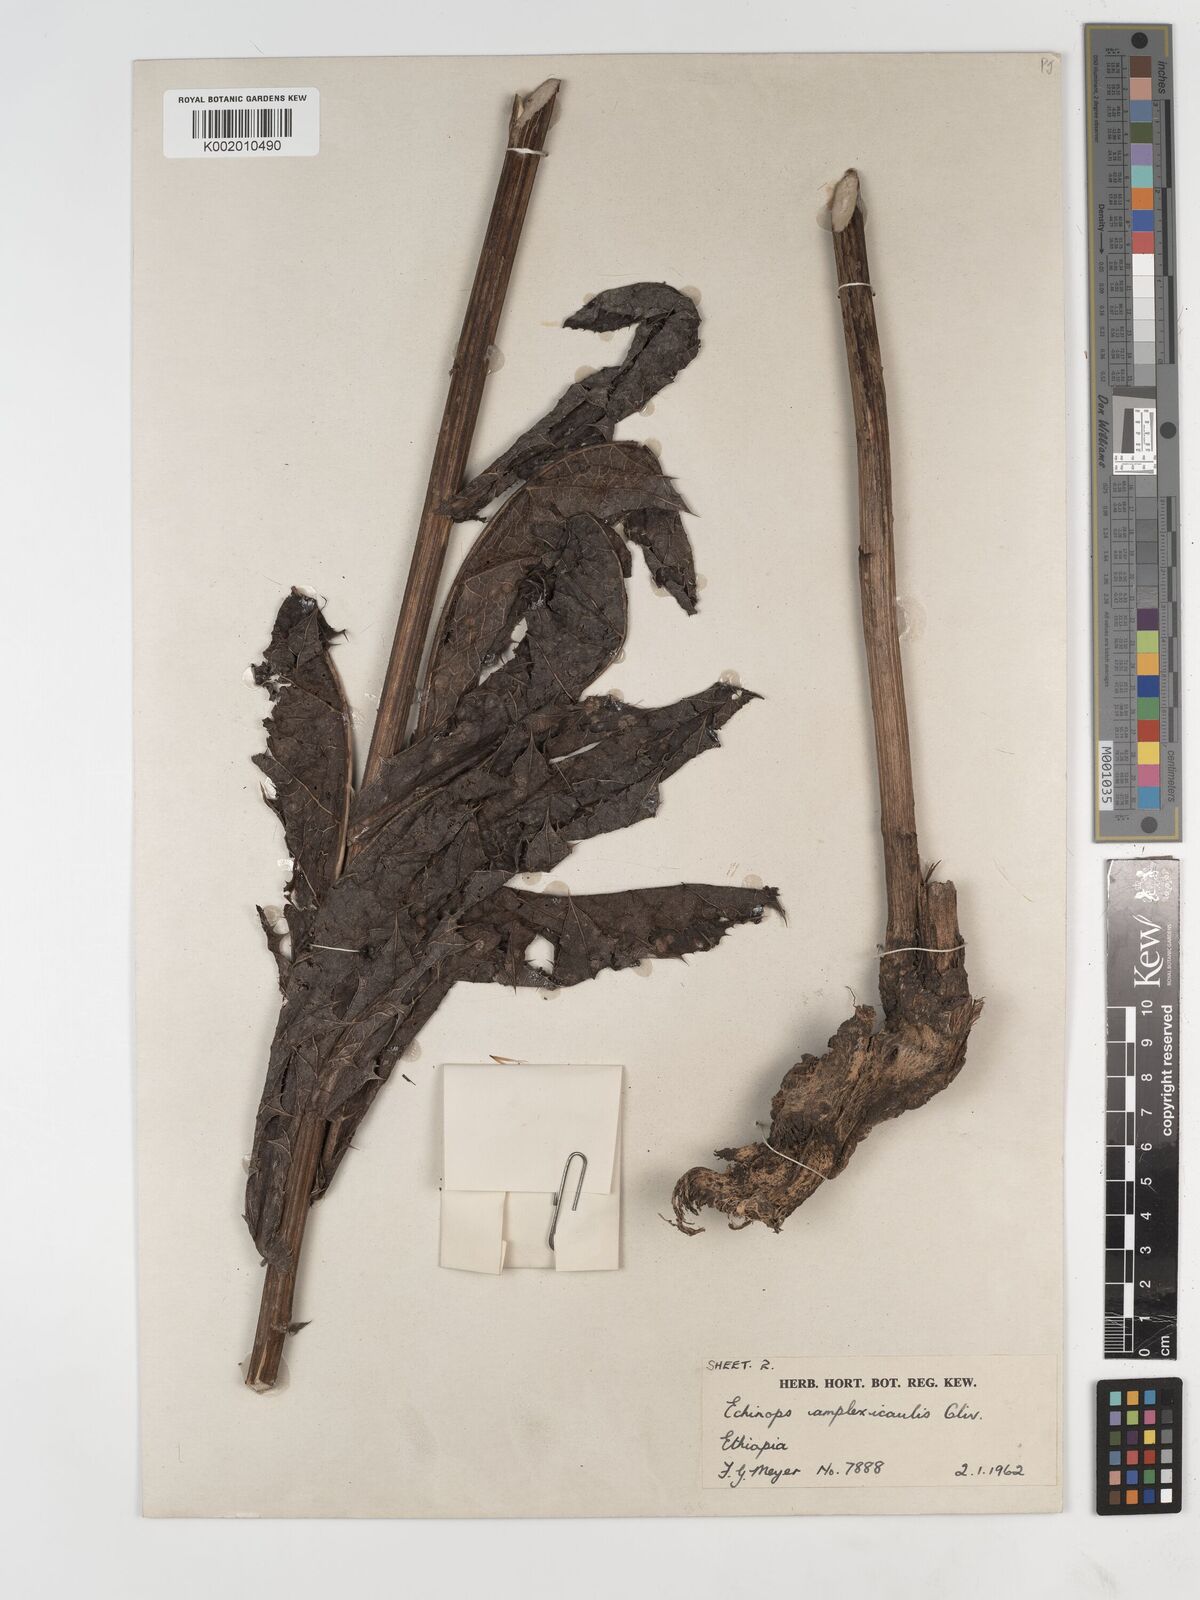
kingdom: Plantae
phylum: Tracheophyta
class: Magnoliopsida
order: Asterales
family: Asteraceae
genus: Echinops
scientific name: Echinops amplexicaulis
